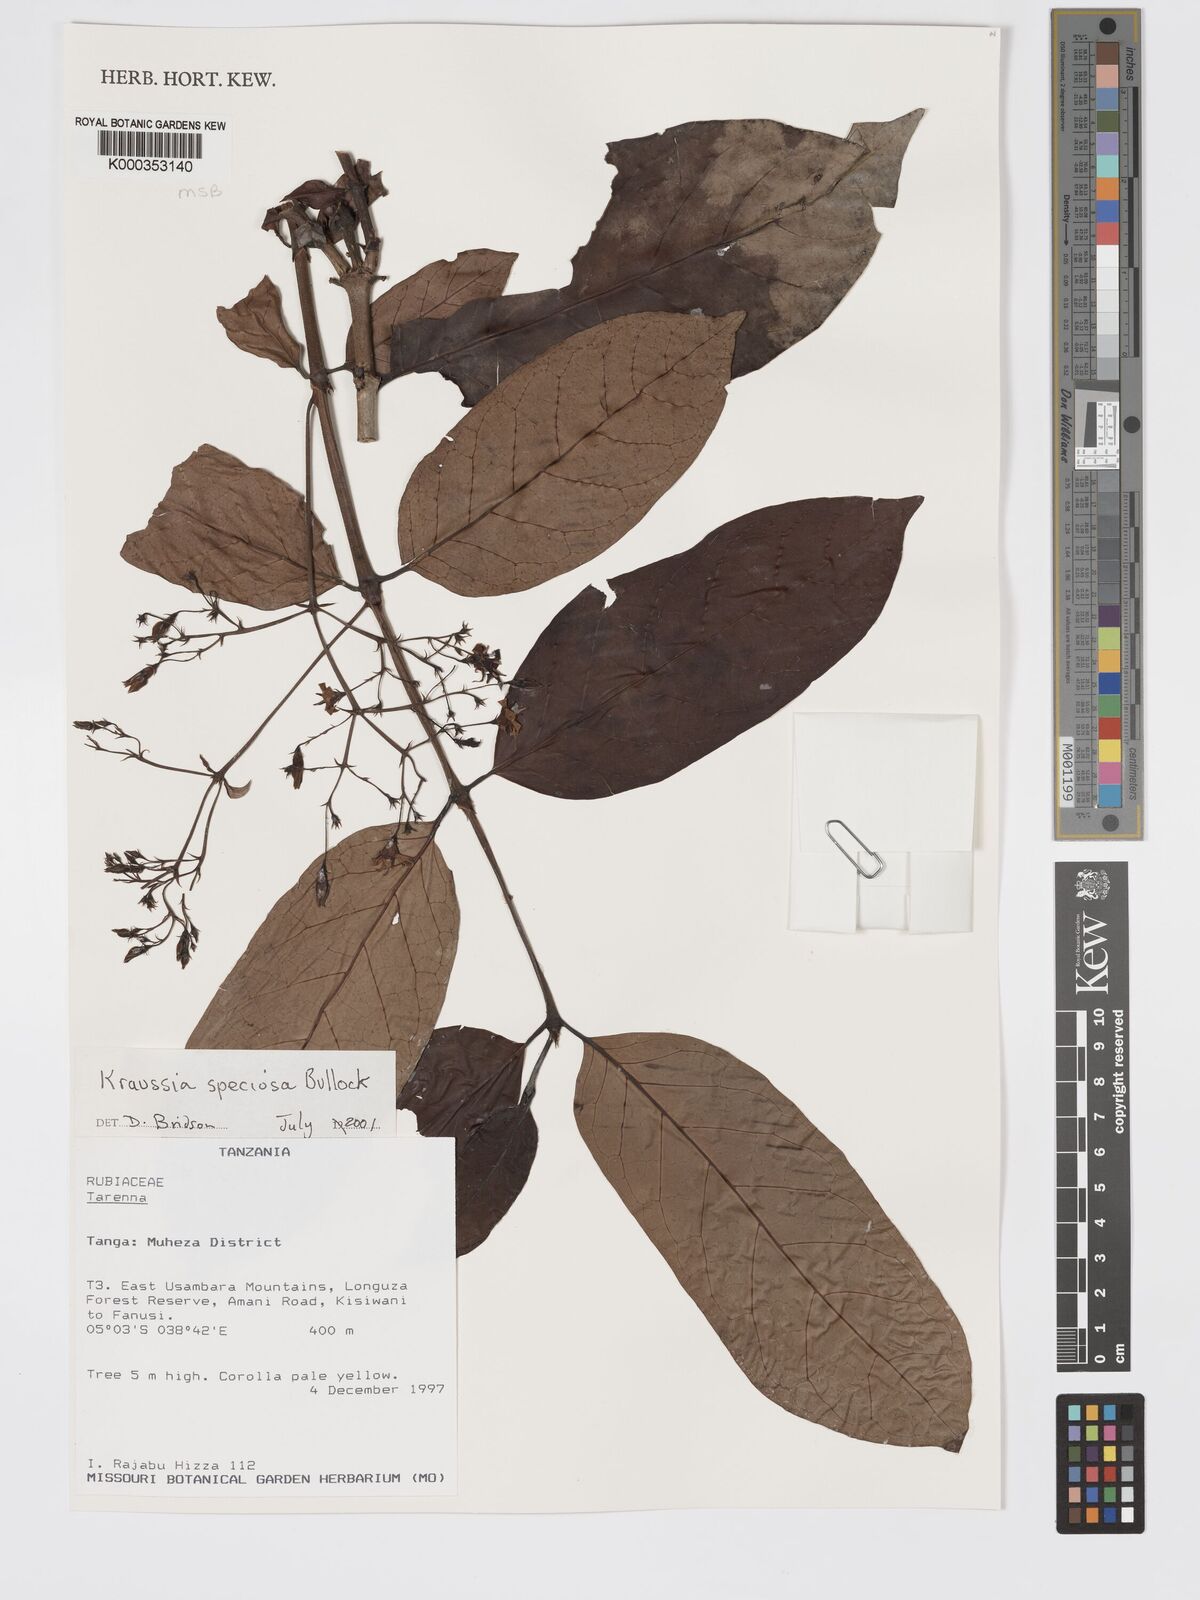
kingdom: Plantae
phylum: Tracheophyta
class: Magnoliopsida
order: Gentianales
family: Rubiaceae
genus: Kraussia
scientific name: Kraussia speciosa
